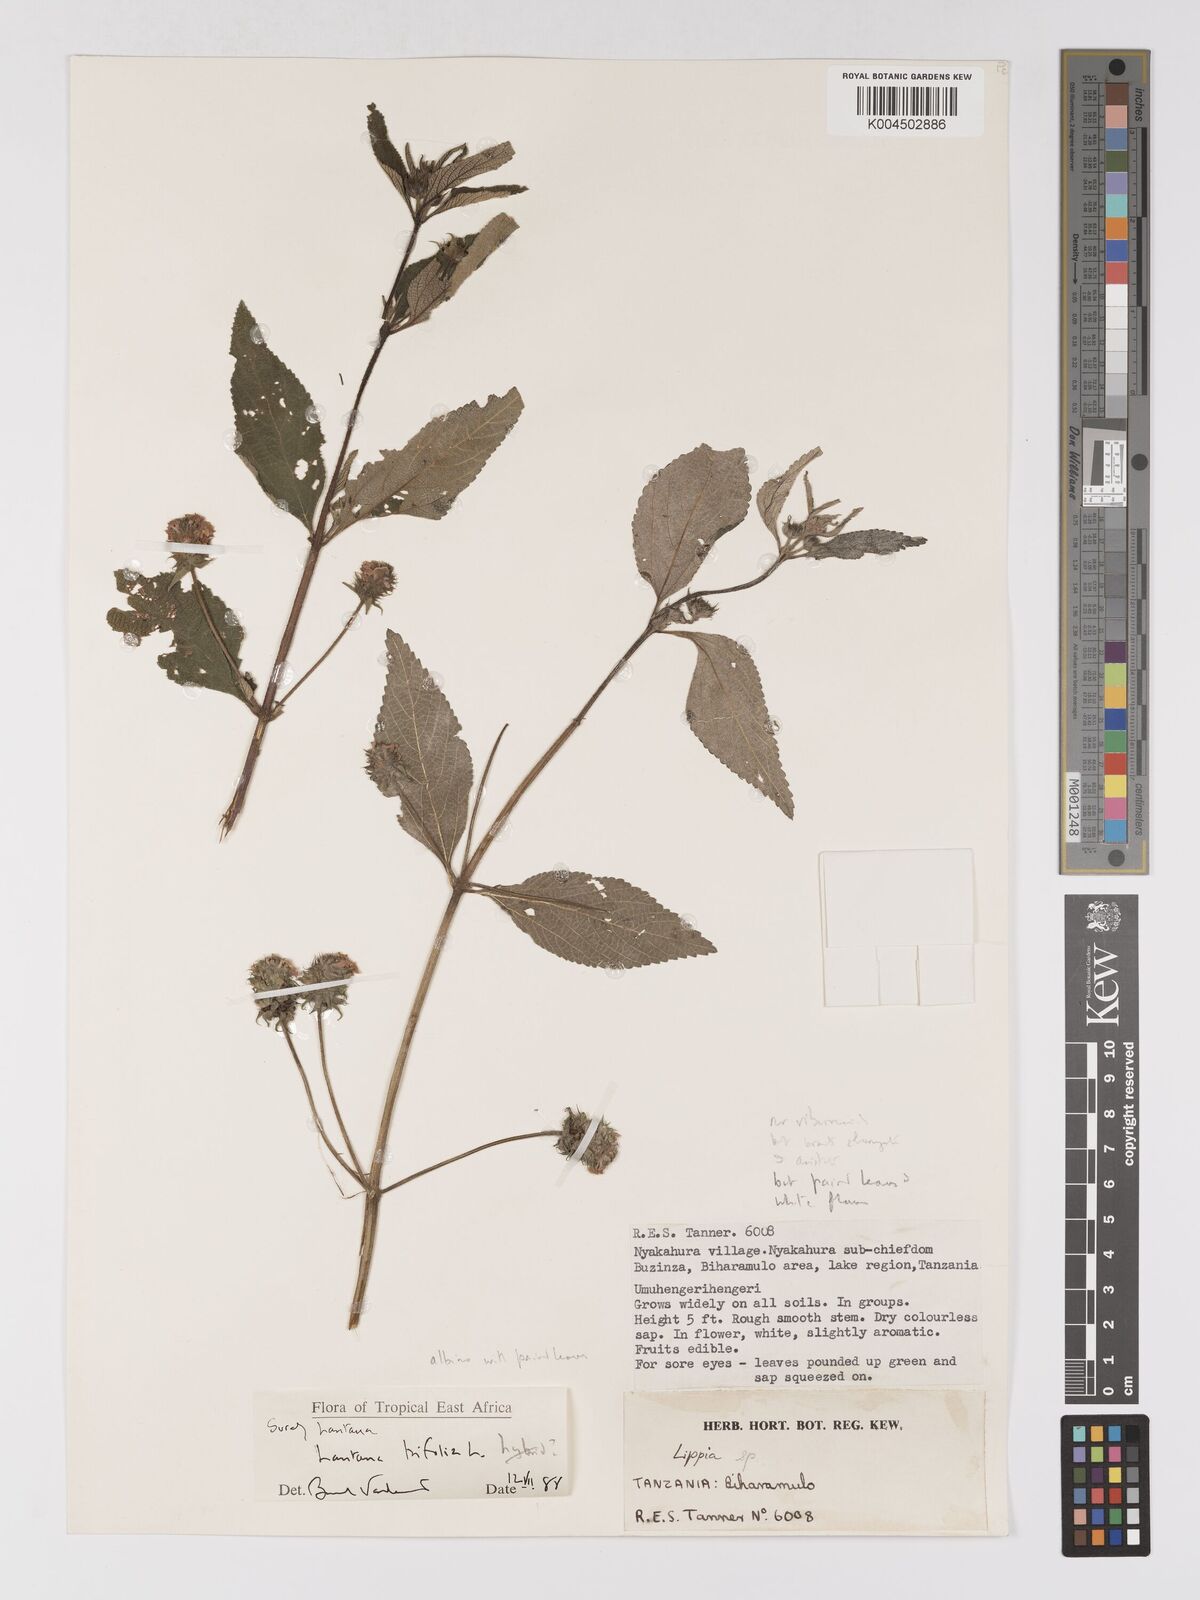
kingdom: Plantae
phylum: Tracheophyta
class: Magnoliopsida
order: Lamiales
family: Verbenaceae
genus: Lantana
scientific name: Lantana trifolia
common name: Sweet-sage
